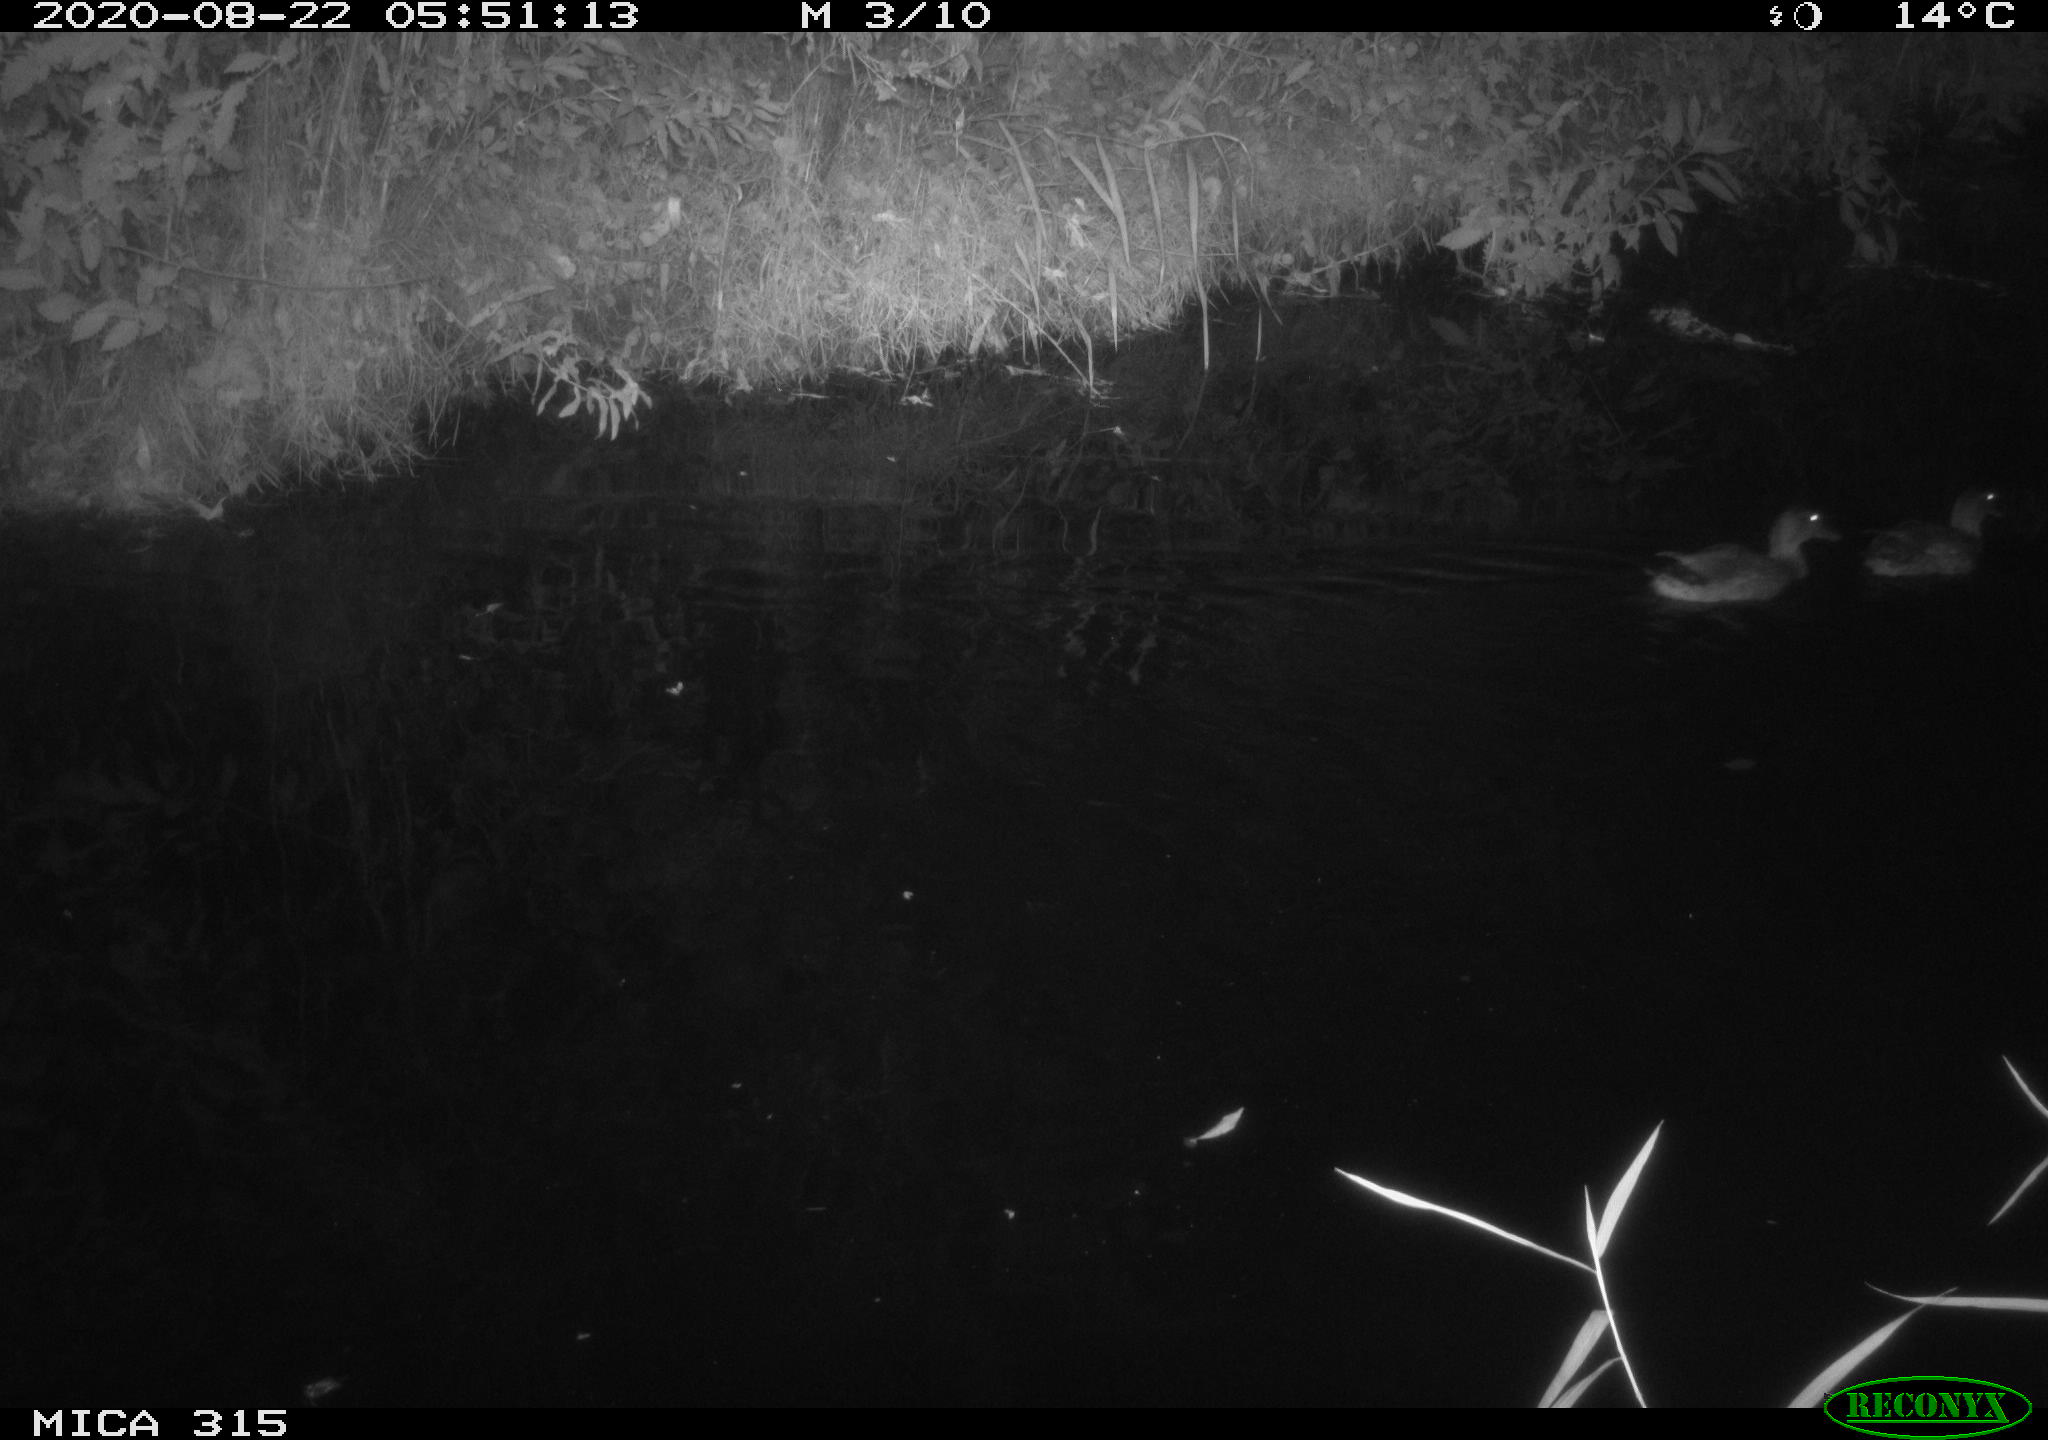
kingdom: Animalia
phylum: Chordata
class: Aves
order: Anseriformes
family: Anatidae
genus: Anas
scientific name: Anas platyrhynchos
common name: Mallard
